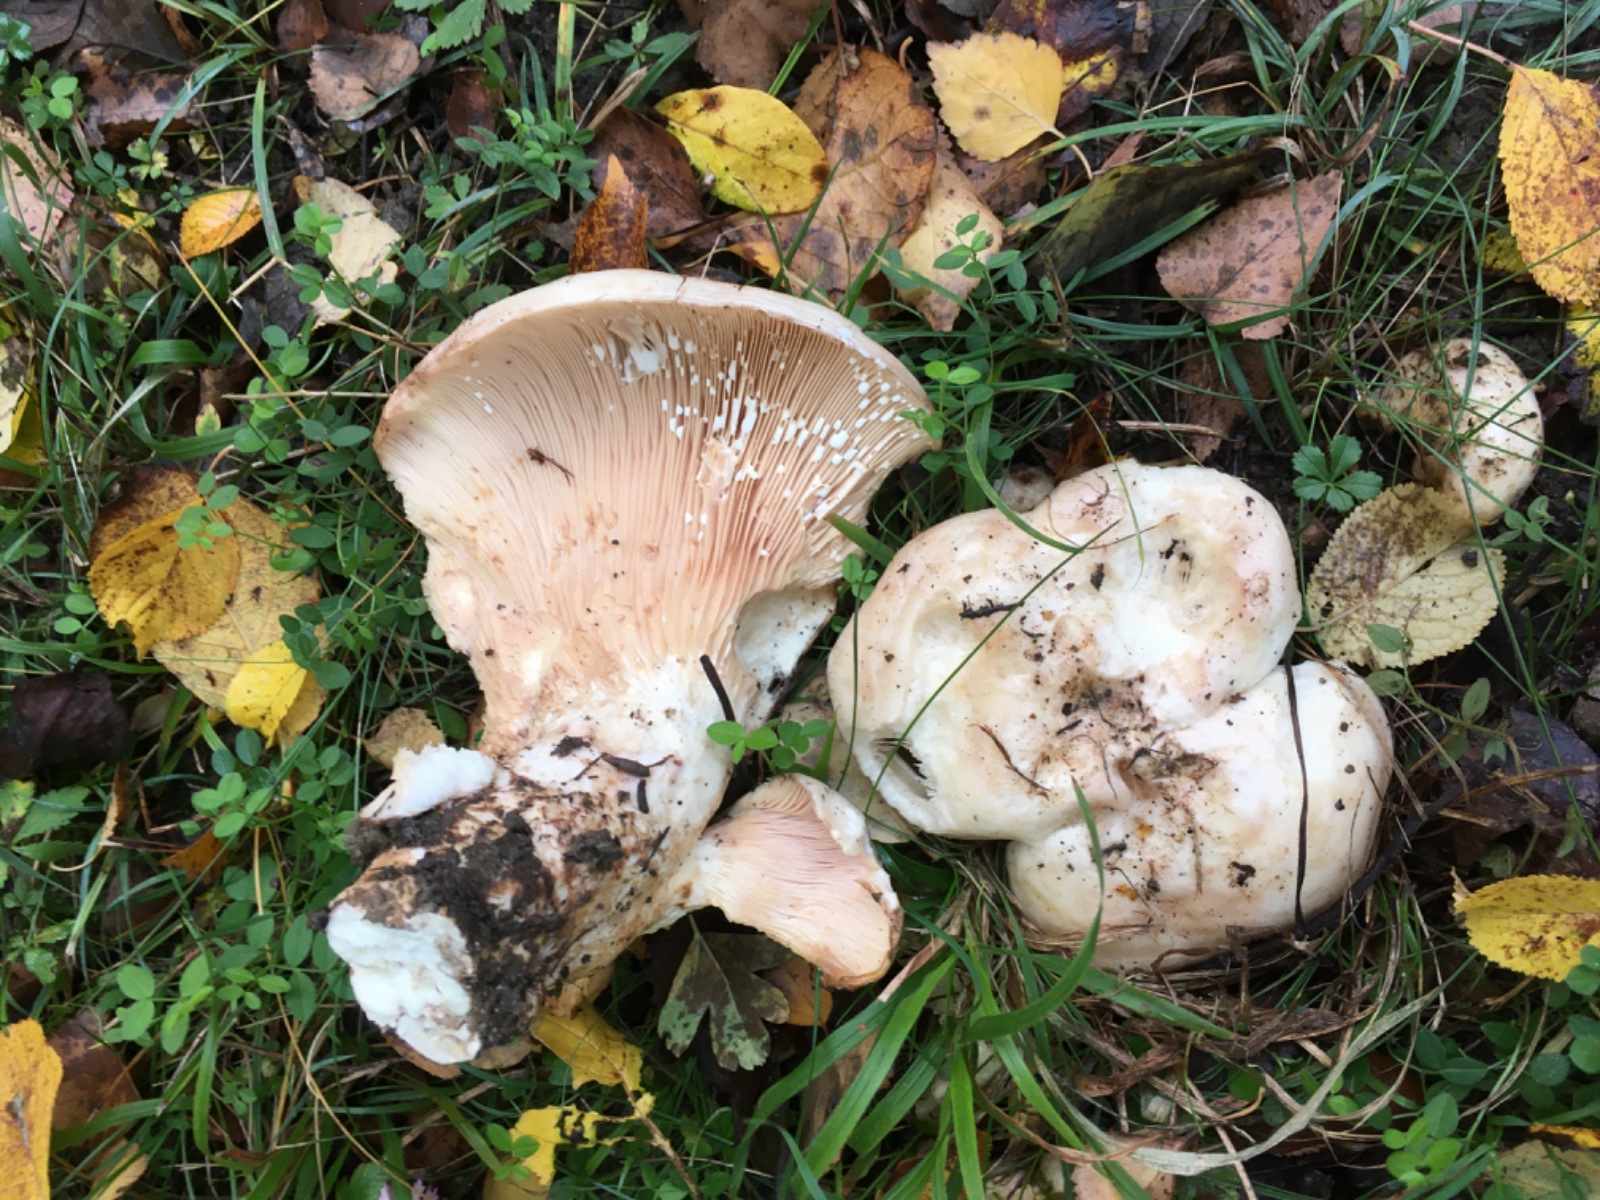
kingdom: Fungi
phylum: Basidiomycota
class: Agaricomycetes
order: Russulales
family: Russulaceae
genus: Lactarius
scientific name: Lactarius controversus
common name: rosabladet mælkehat
